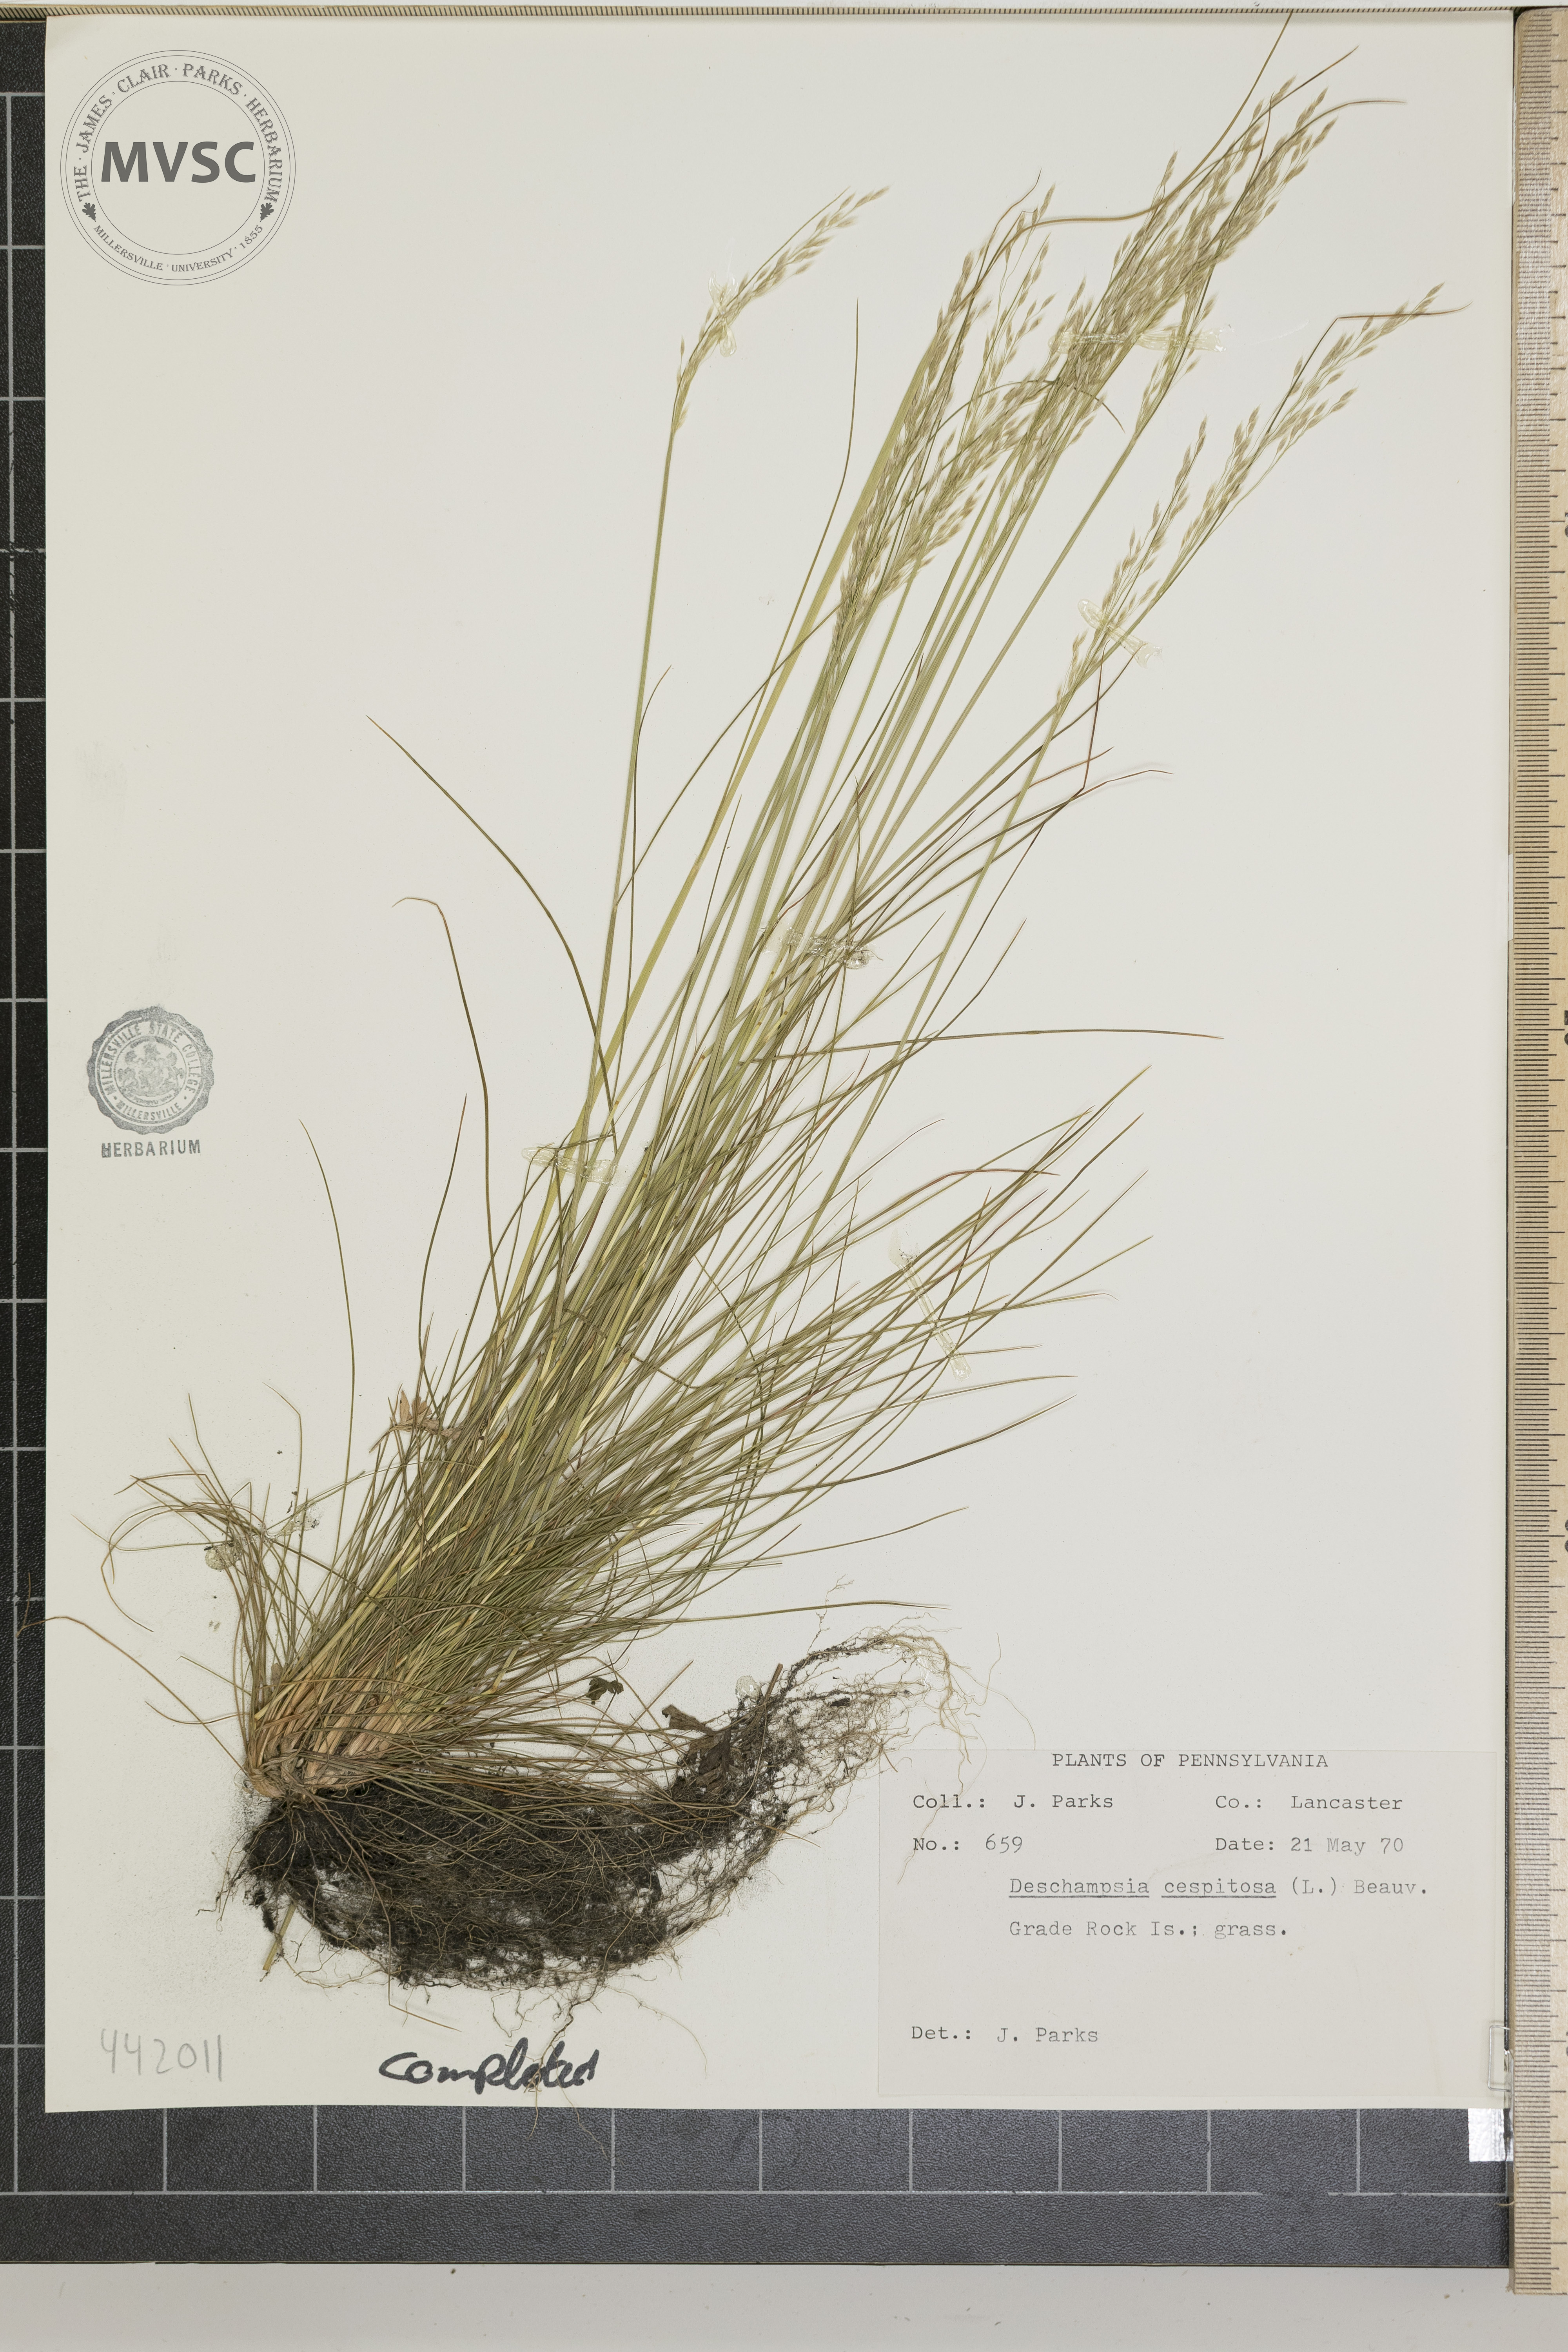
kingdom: Plantae
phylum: Tracheophyta
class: Liliopsida
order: Poales
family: Poaceae
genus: Deschampsia
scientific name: Deschampsia cespitosa
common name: Tufted hair-grass
